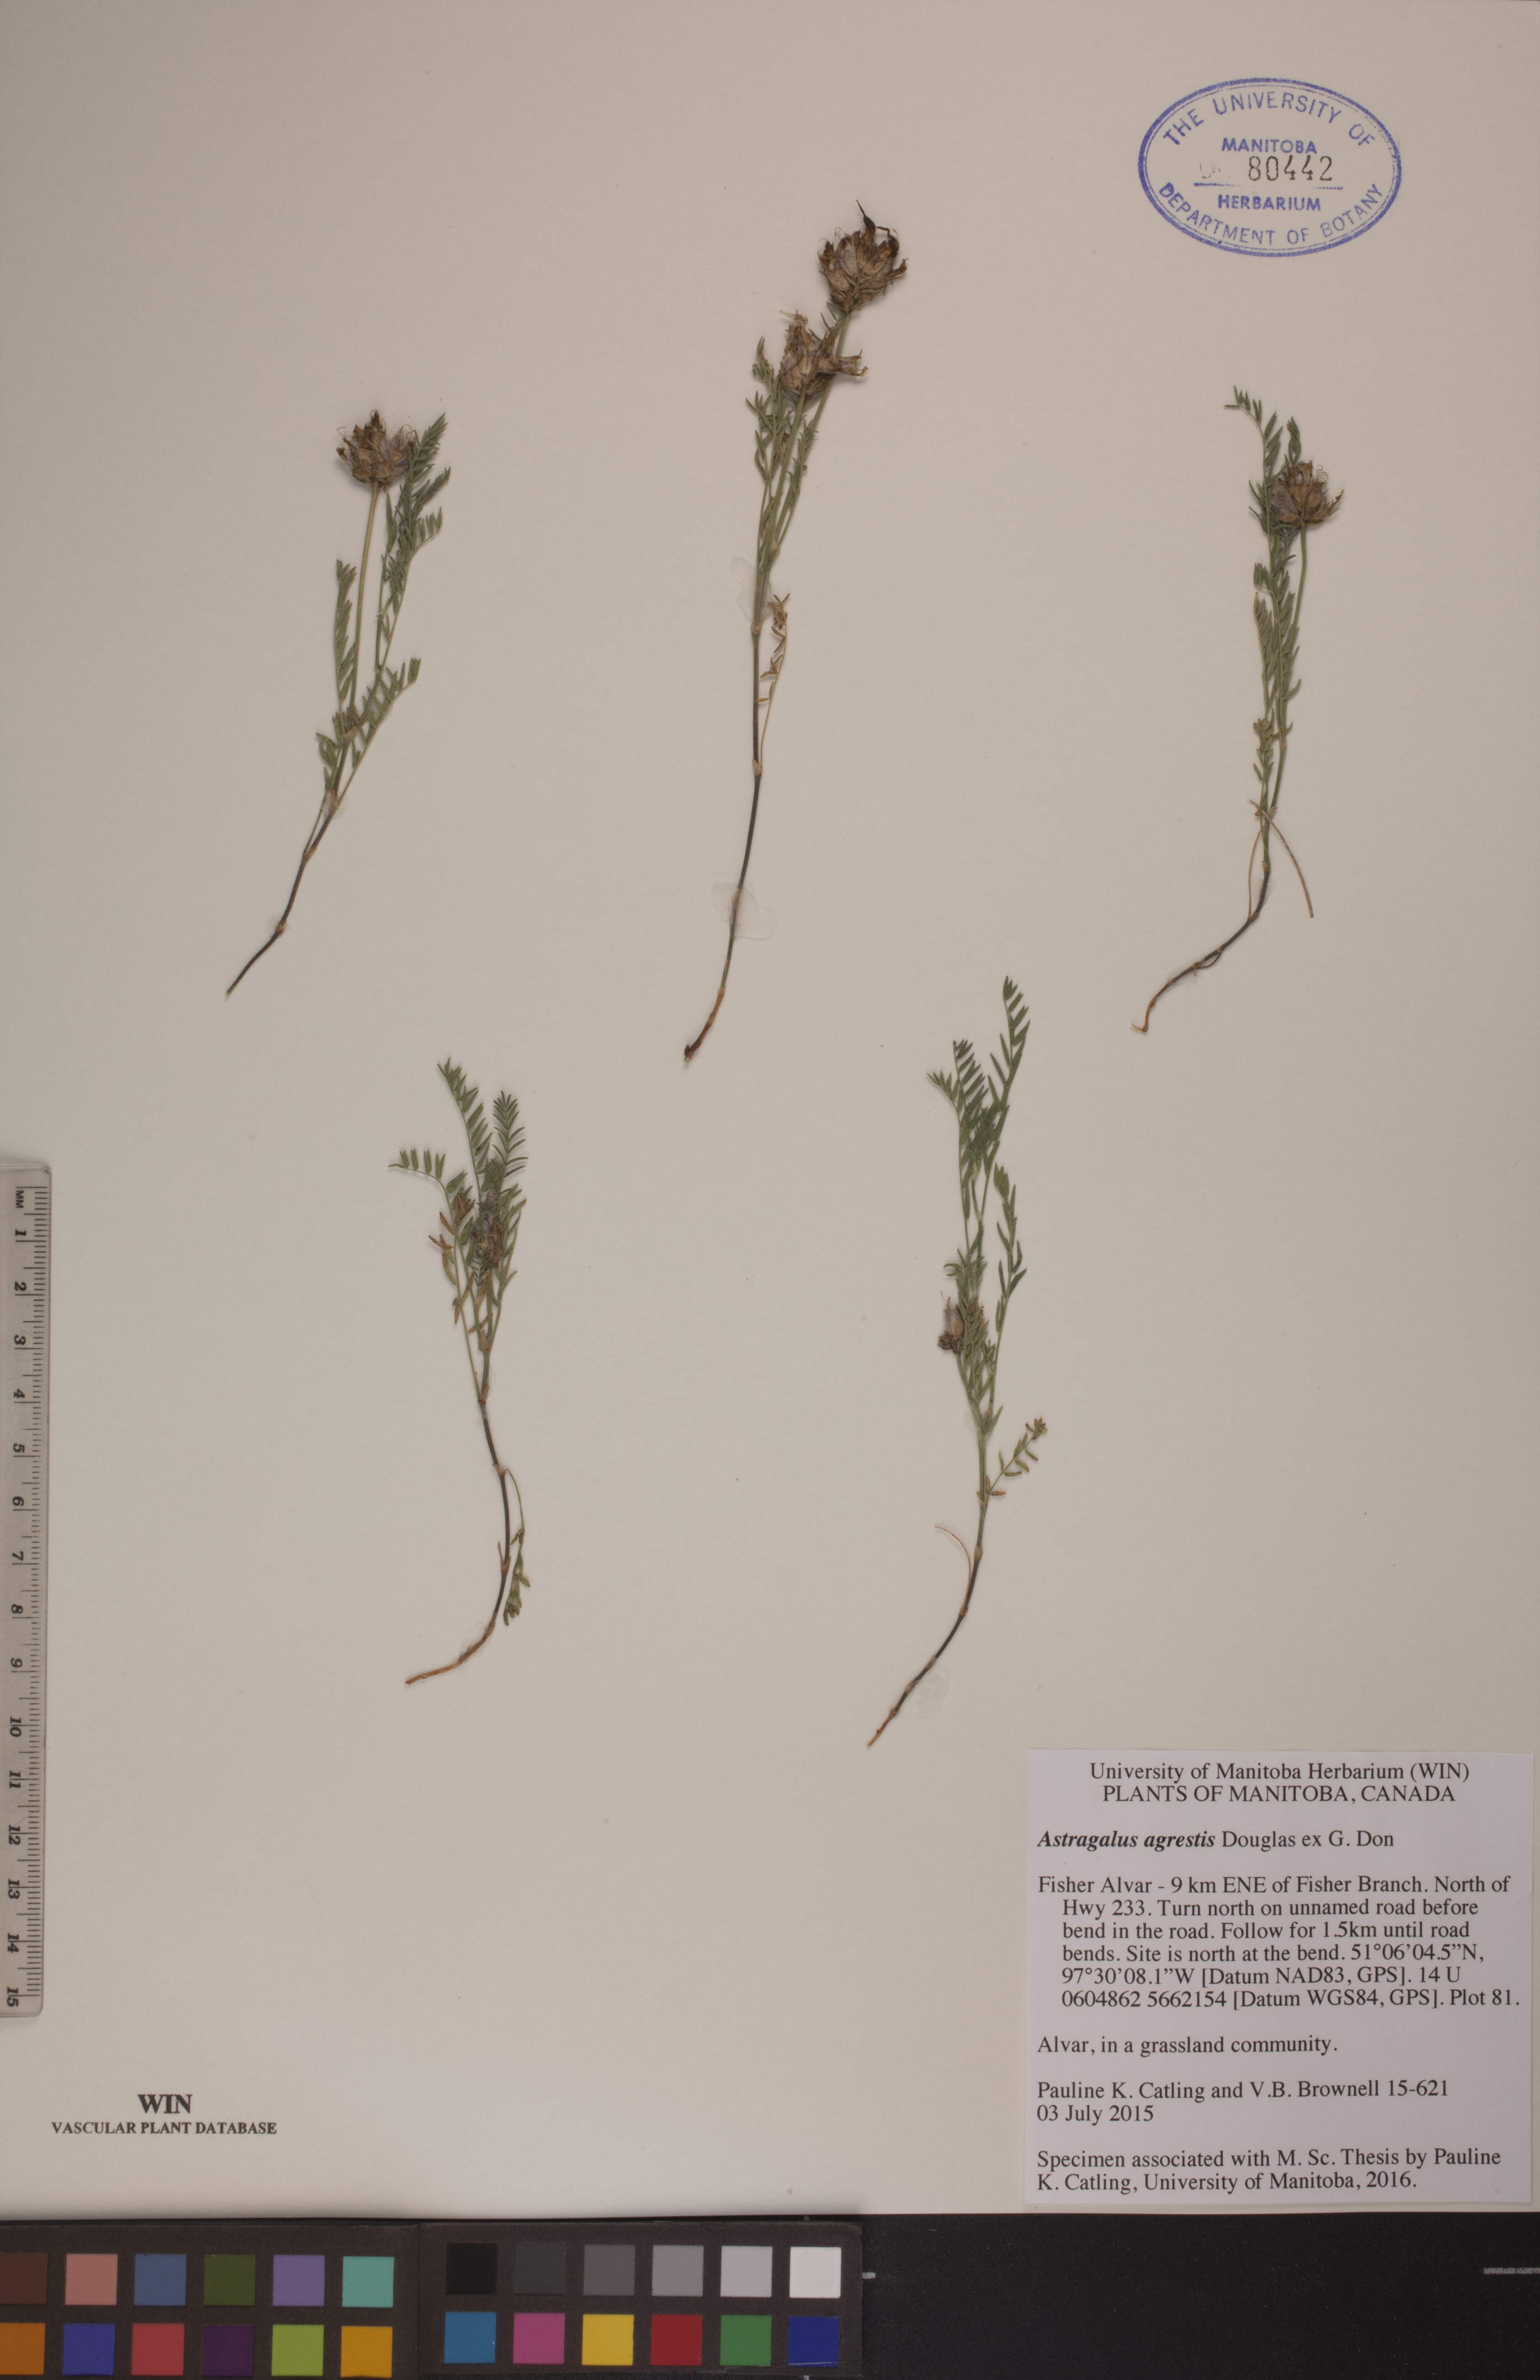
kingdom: Plantae
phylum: Tracheophyta
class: Magnoliopsida
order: Fabales
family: Fabaceae
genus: Astragalus
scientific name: Astragalus agrestis
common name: Field milk-vetch
